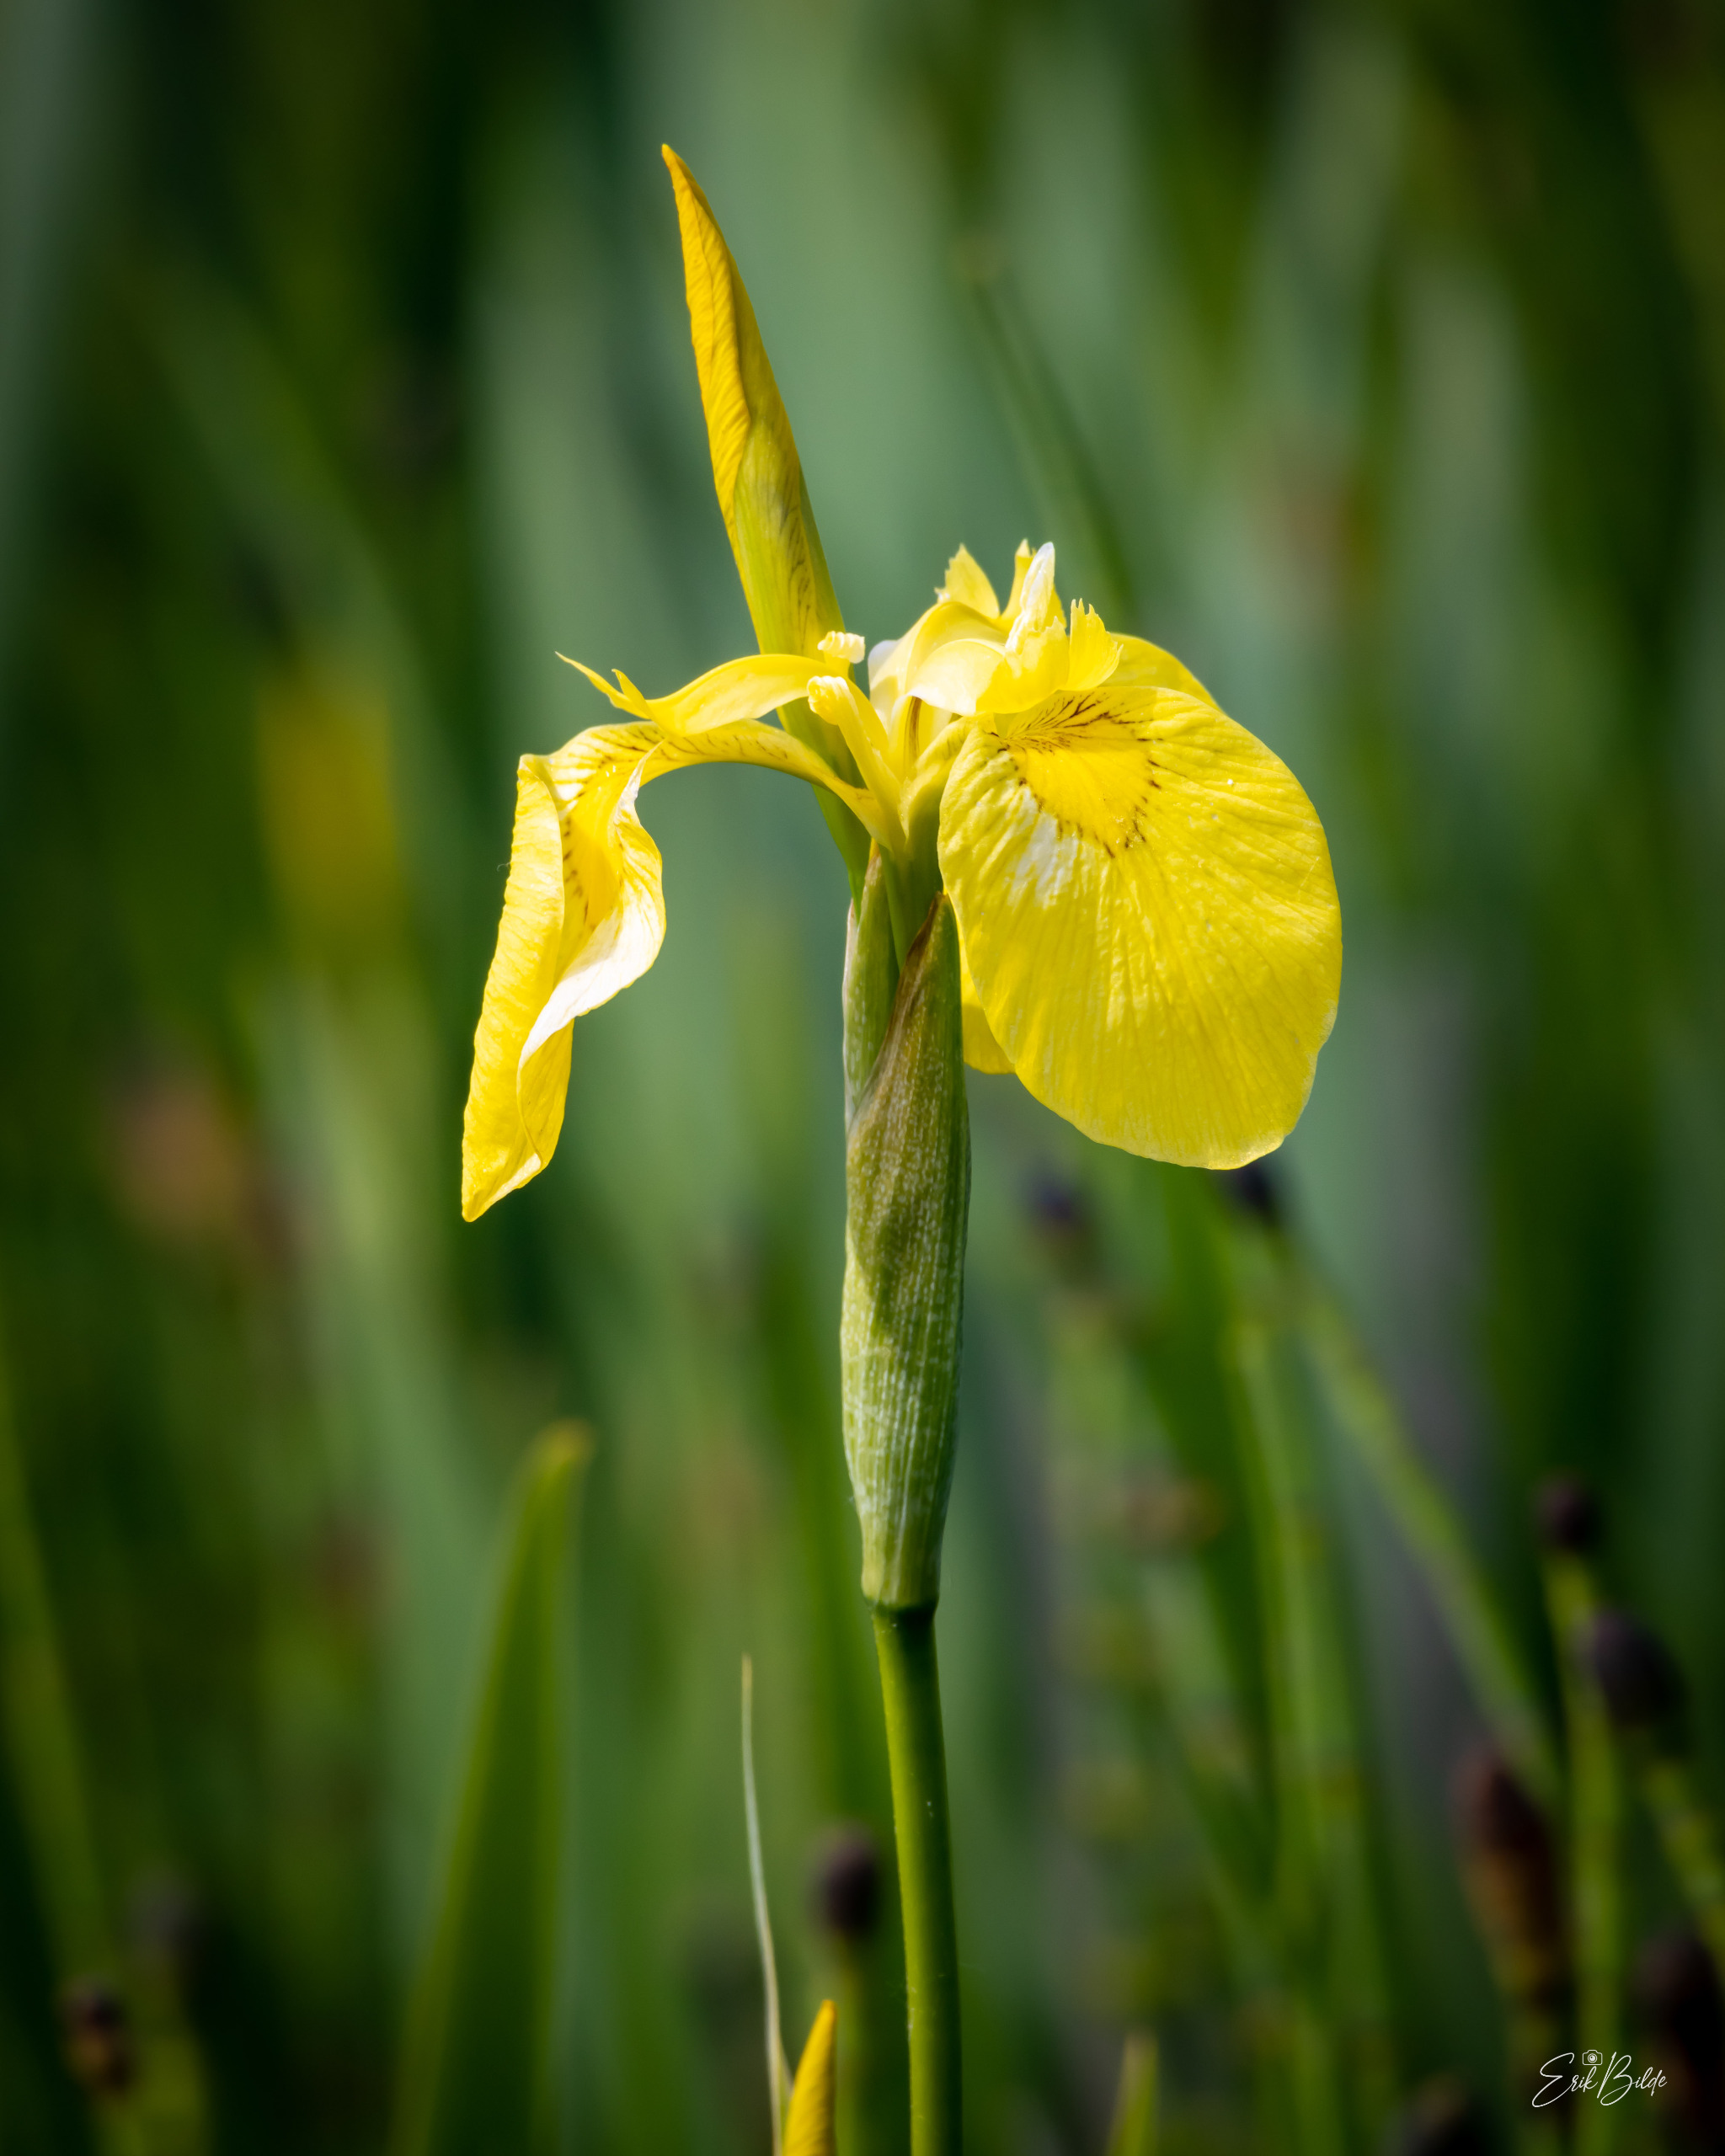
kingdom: Plantae
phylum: Tracheophyta
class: Liliopsida
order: Asparagales
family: Iridaceae
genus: Iris
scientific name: Iris pseudacorus
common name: Gul iris
